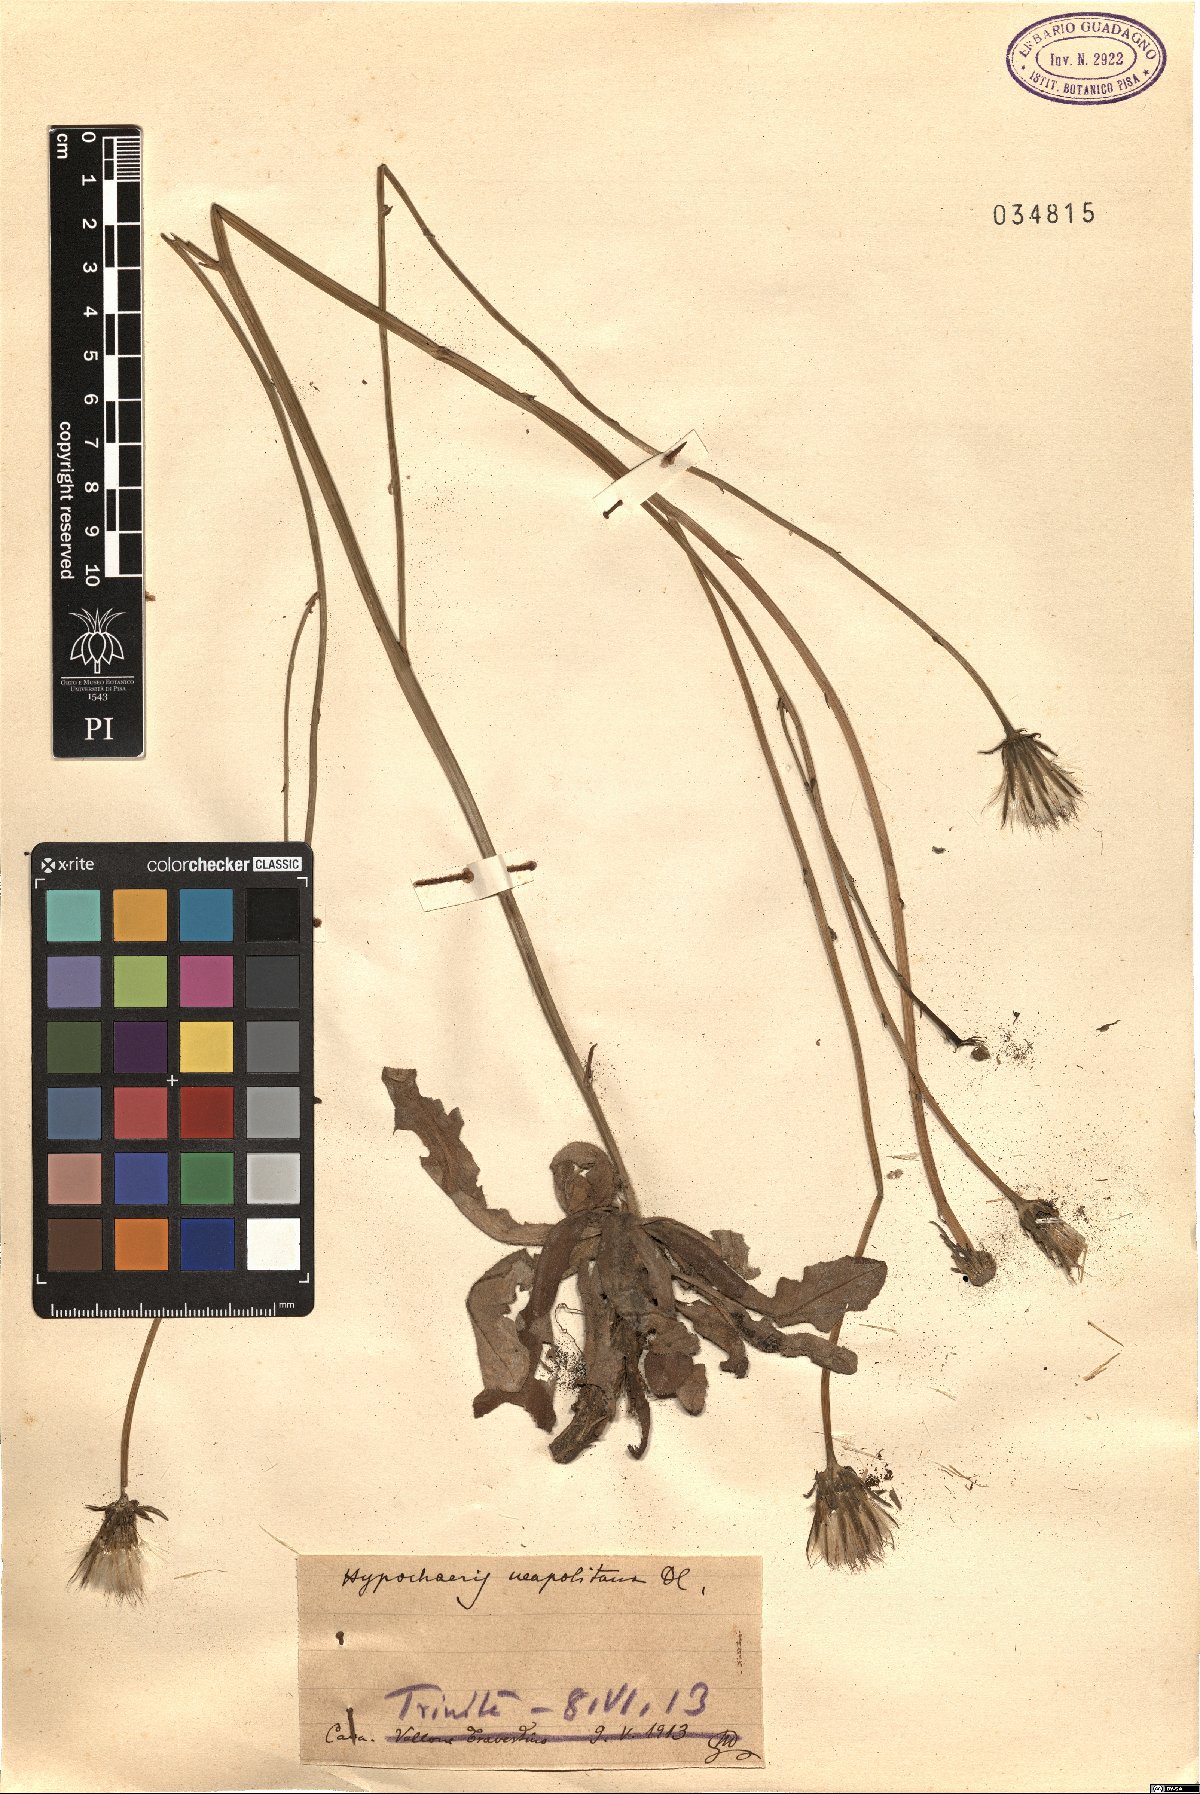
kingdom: Plantae
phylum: Tracheophyta
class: Magnoliopsida
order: Asterales
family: Asteraceae
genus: Hypochaeris
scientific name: Hypochaeris radicata
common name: Flatweed
